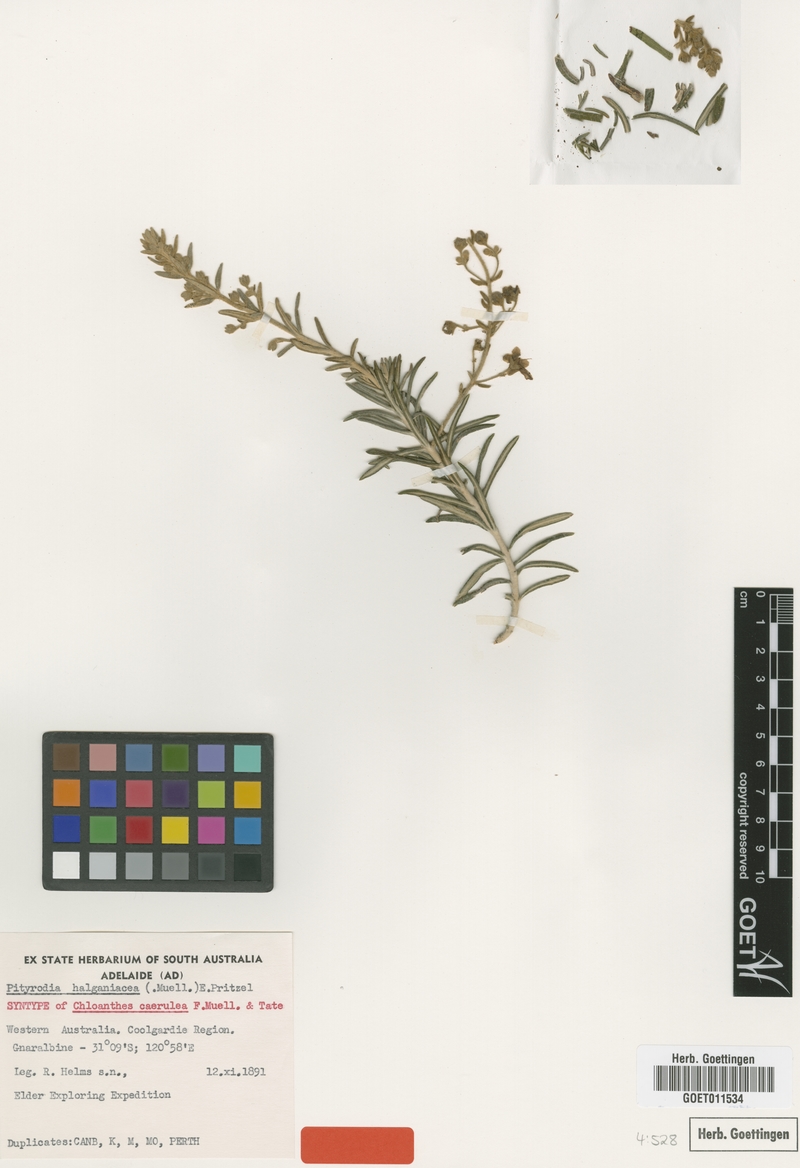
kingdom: Plantae
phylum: Tracheophyta
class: Magnoliopsida
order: Lamiales
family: Lamiaceae
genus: Brachysola
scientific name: Brachysola halganiacea
